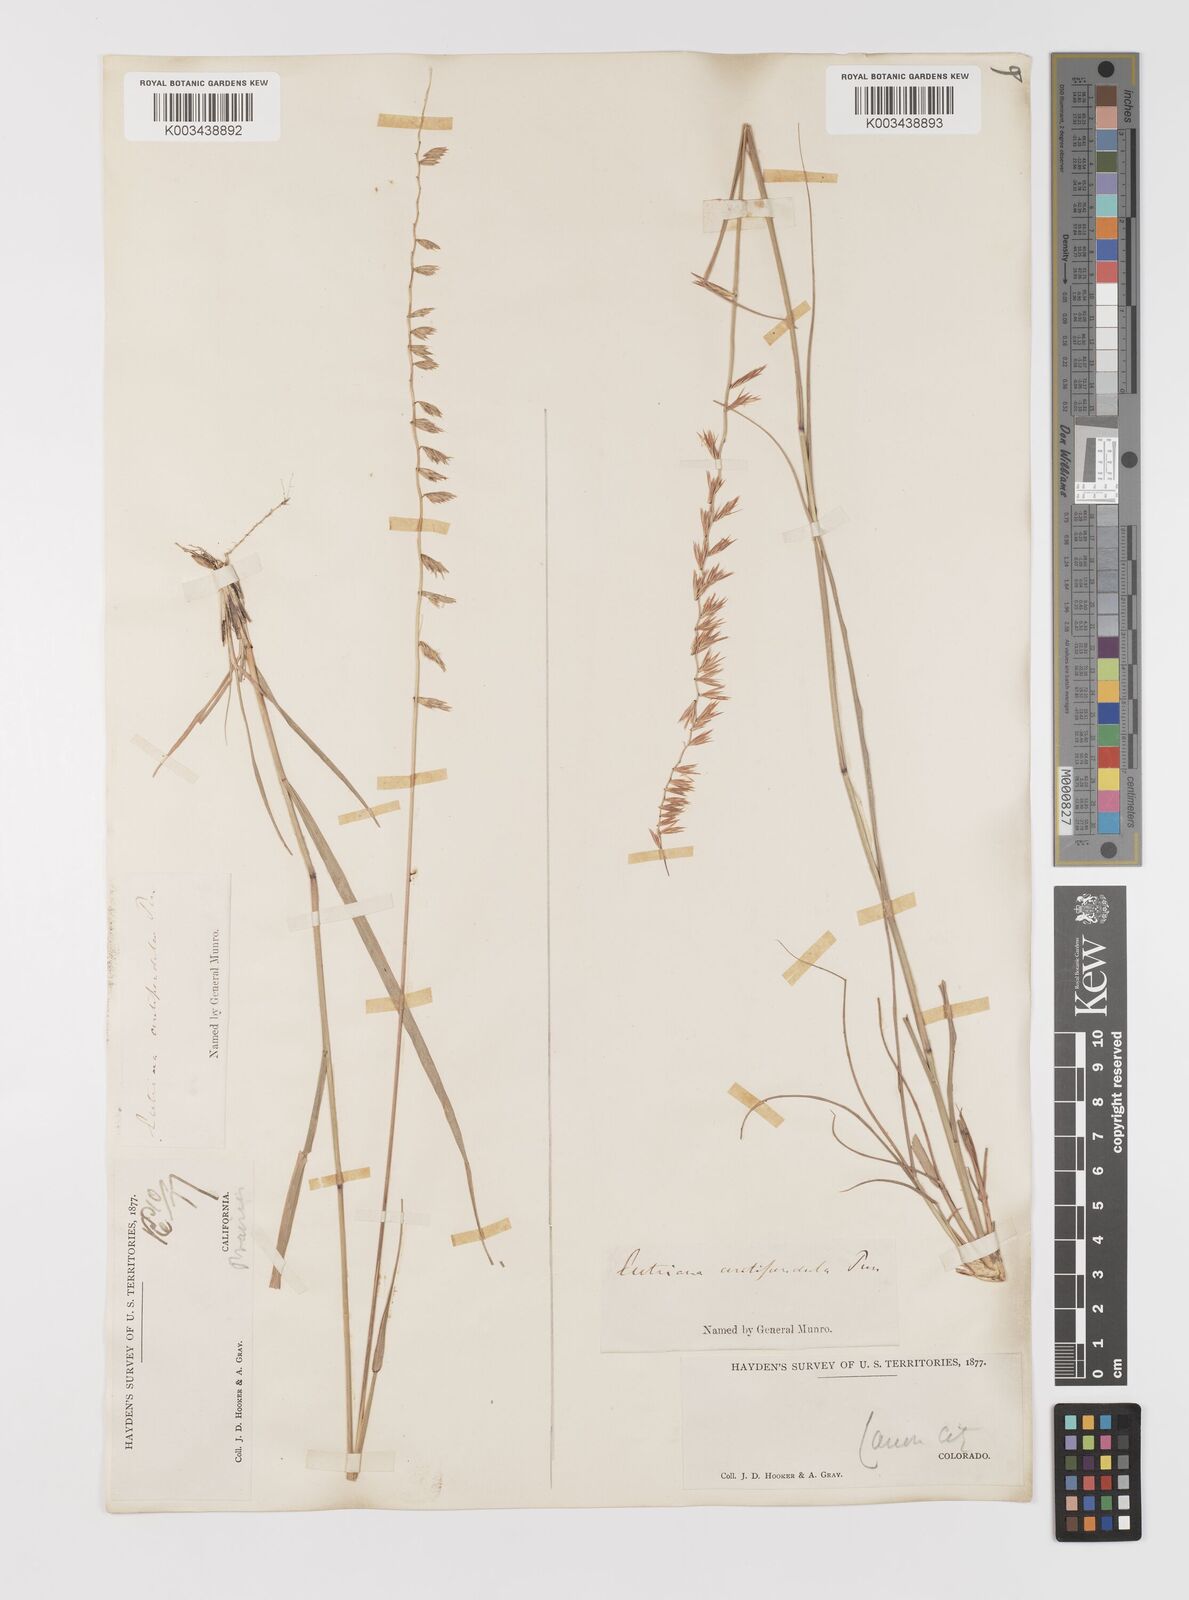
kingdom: Plantae
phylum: Tracheophyta
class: Liliopsida
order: Poales
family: Poaceae
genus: Bouteloua
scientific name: Bouteloua curtipendula
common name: Side-oats grama
